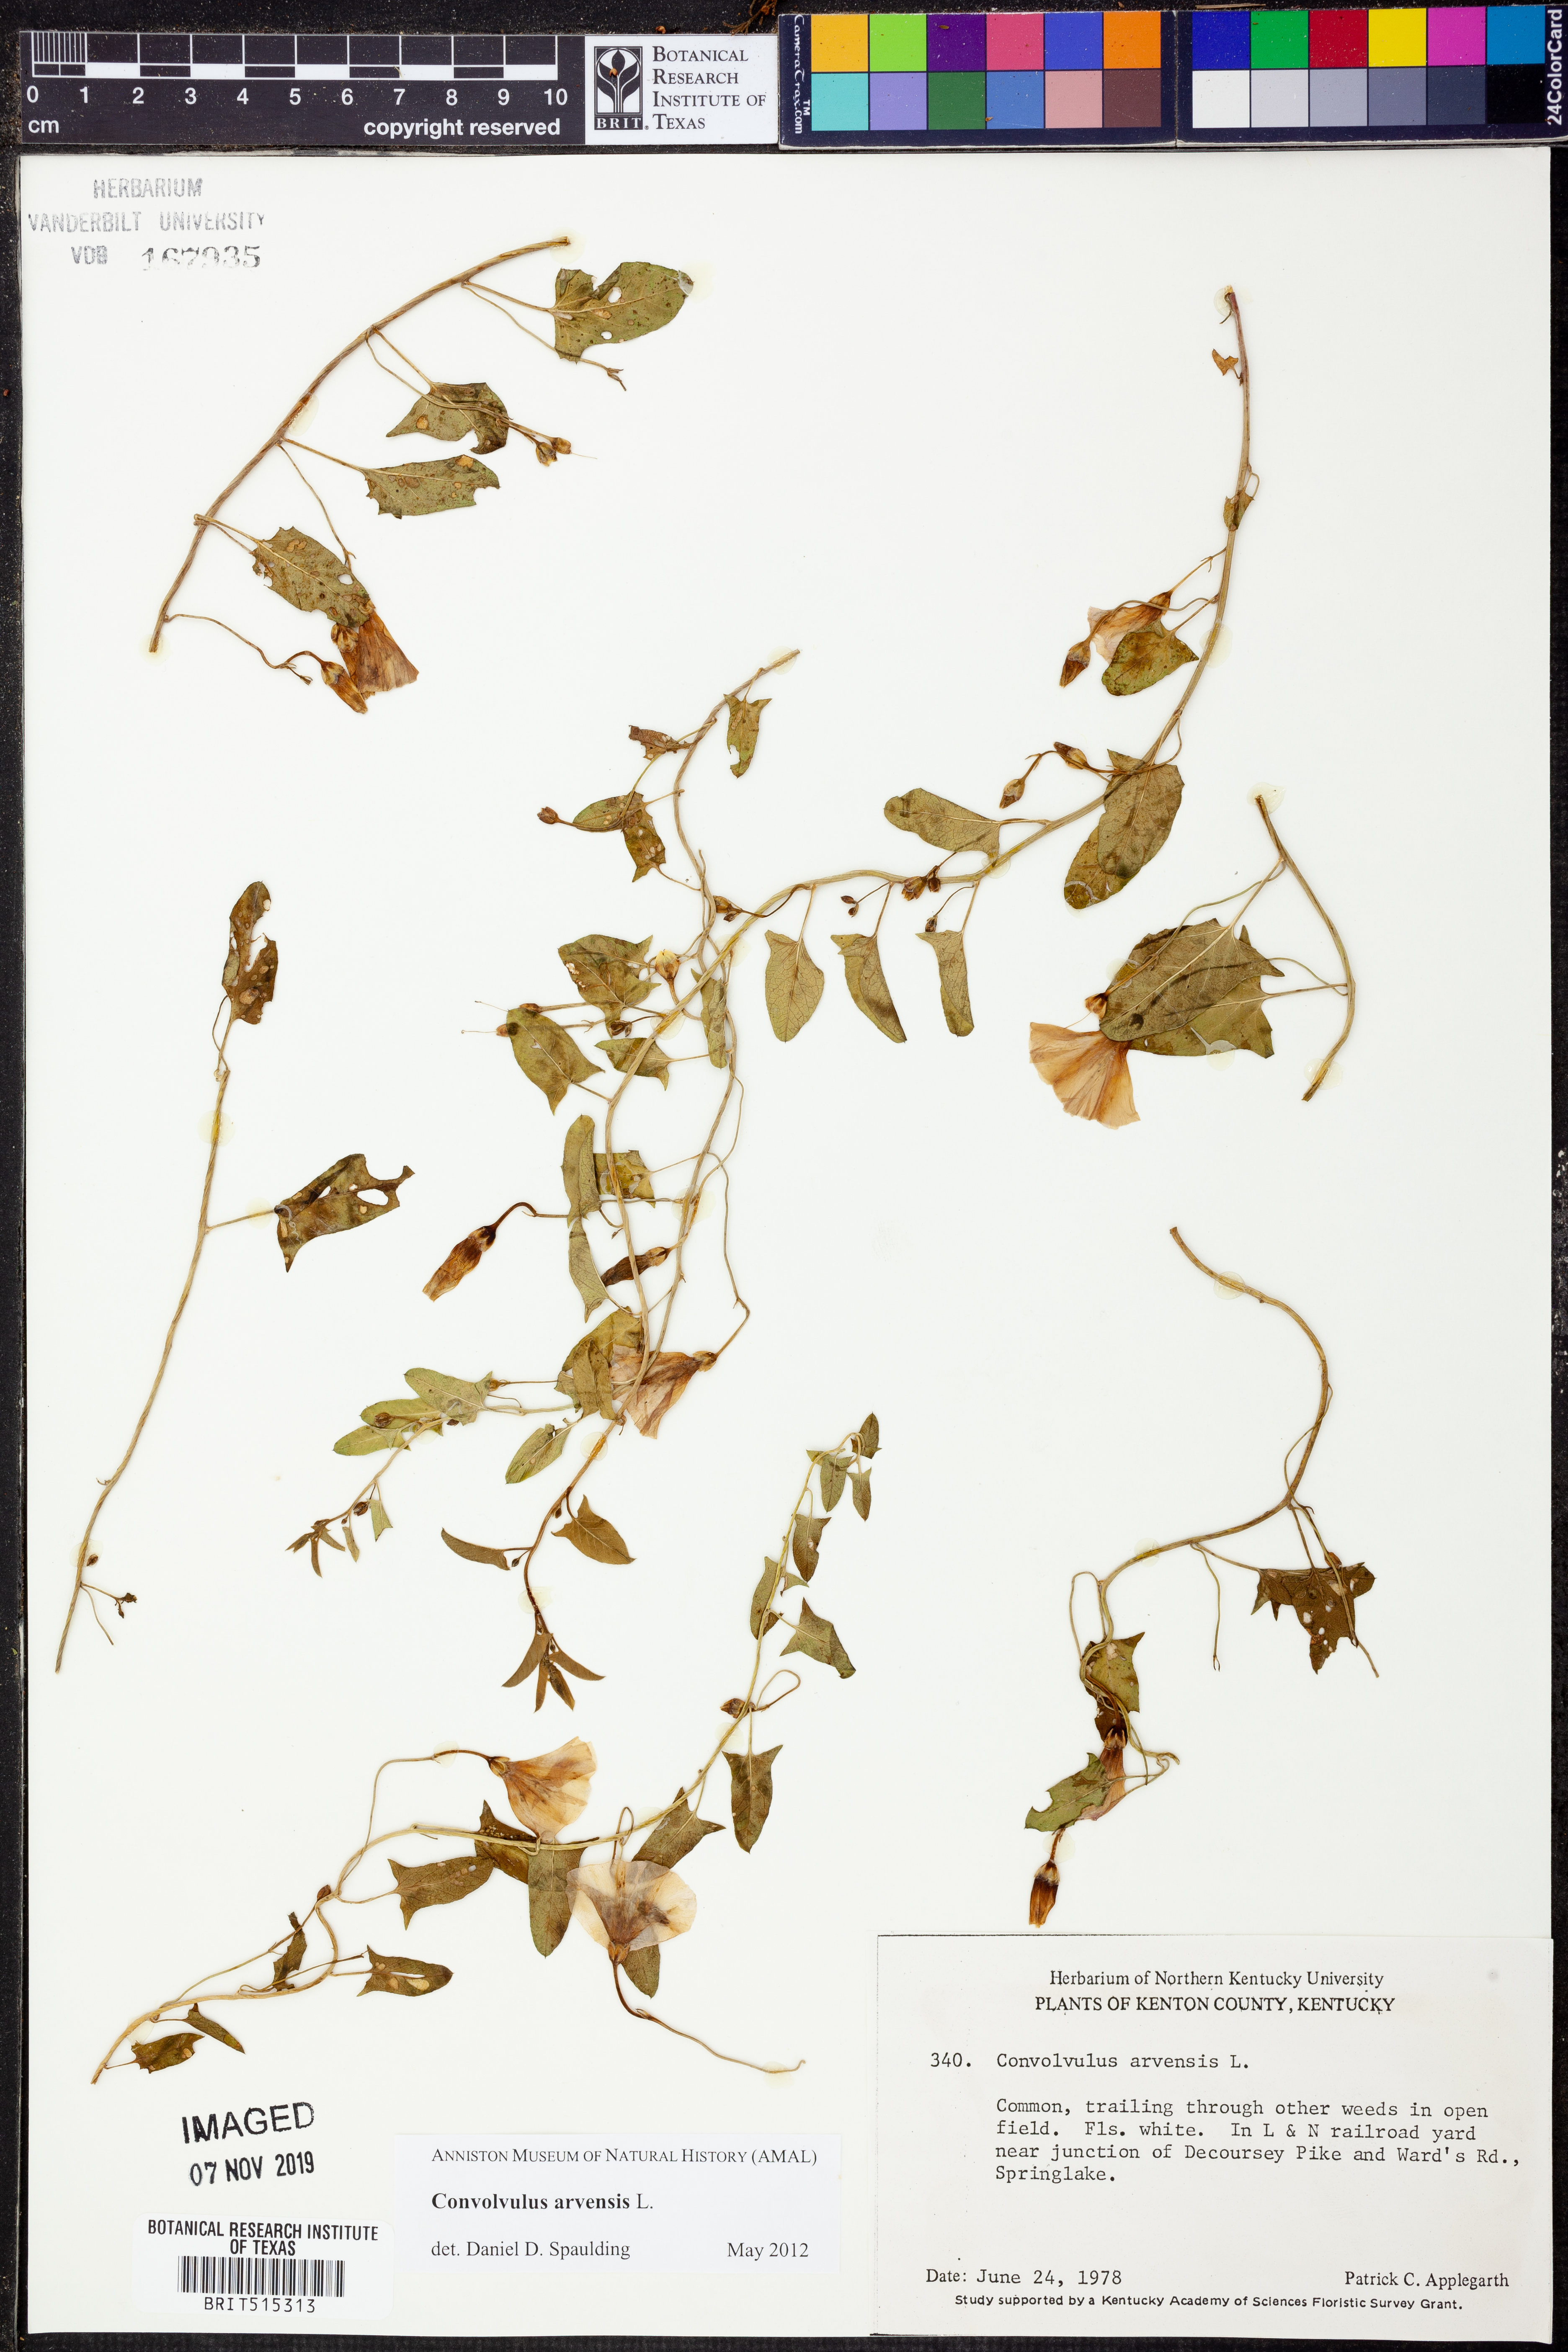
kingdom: Plantae
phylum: Tracheophyta
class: Magnoliopsida
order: Solanales
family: Convolvulaceae
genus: Convolvulus
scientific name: Convolvulus arvensis
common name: Field bindweed
